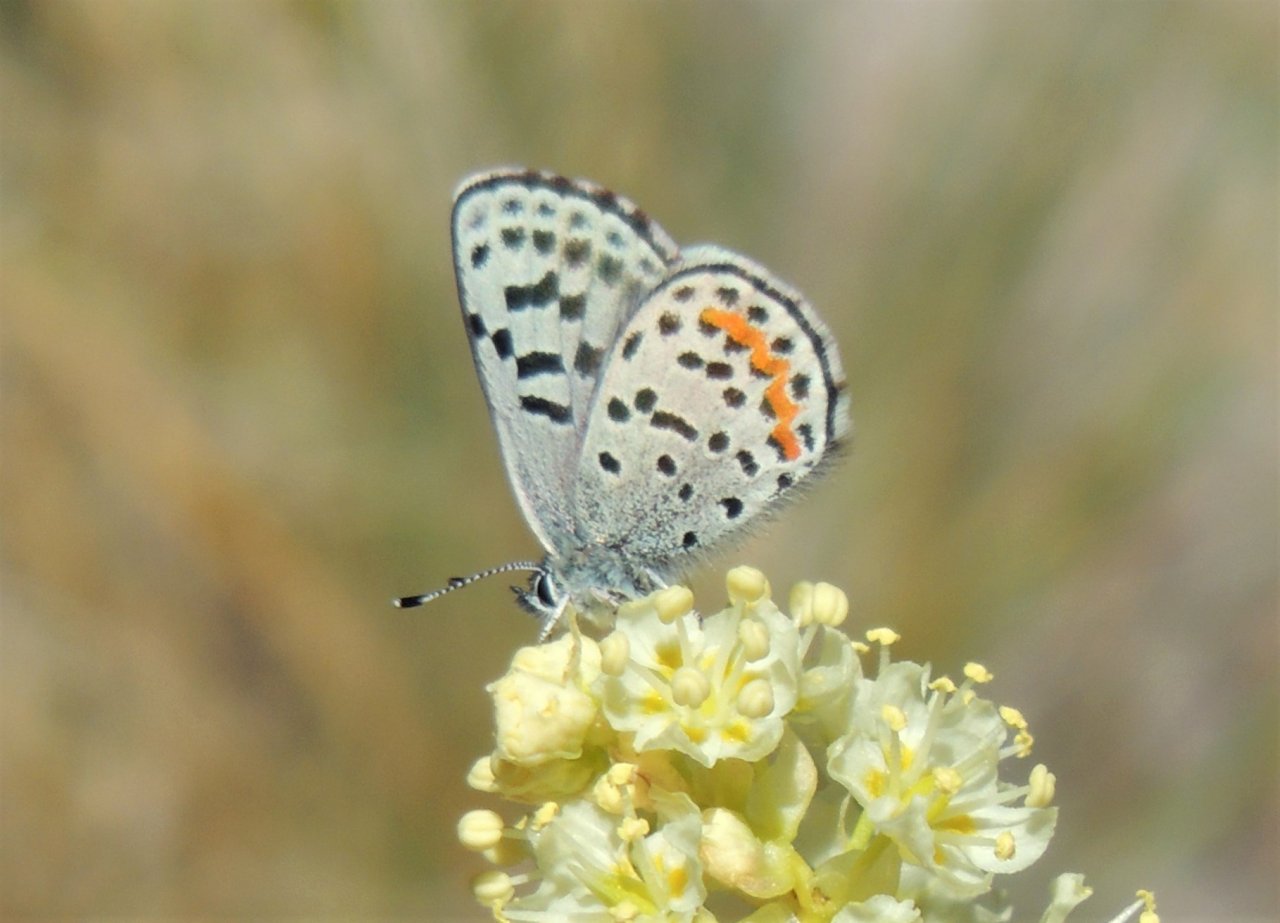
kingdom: Animalia
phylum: Arthropoda
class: Insecta
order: Lepidoptera
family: Lycaenidae
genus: Euphilotes
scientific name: Euphilotes battoides
